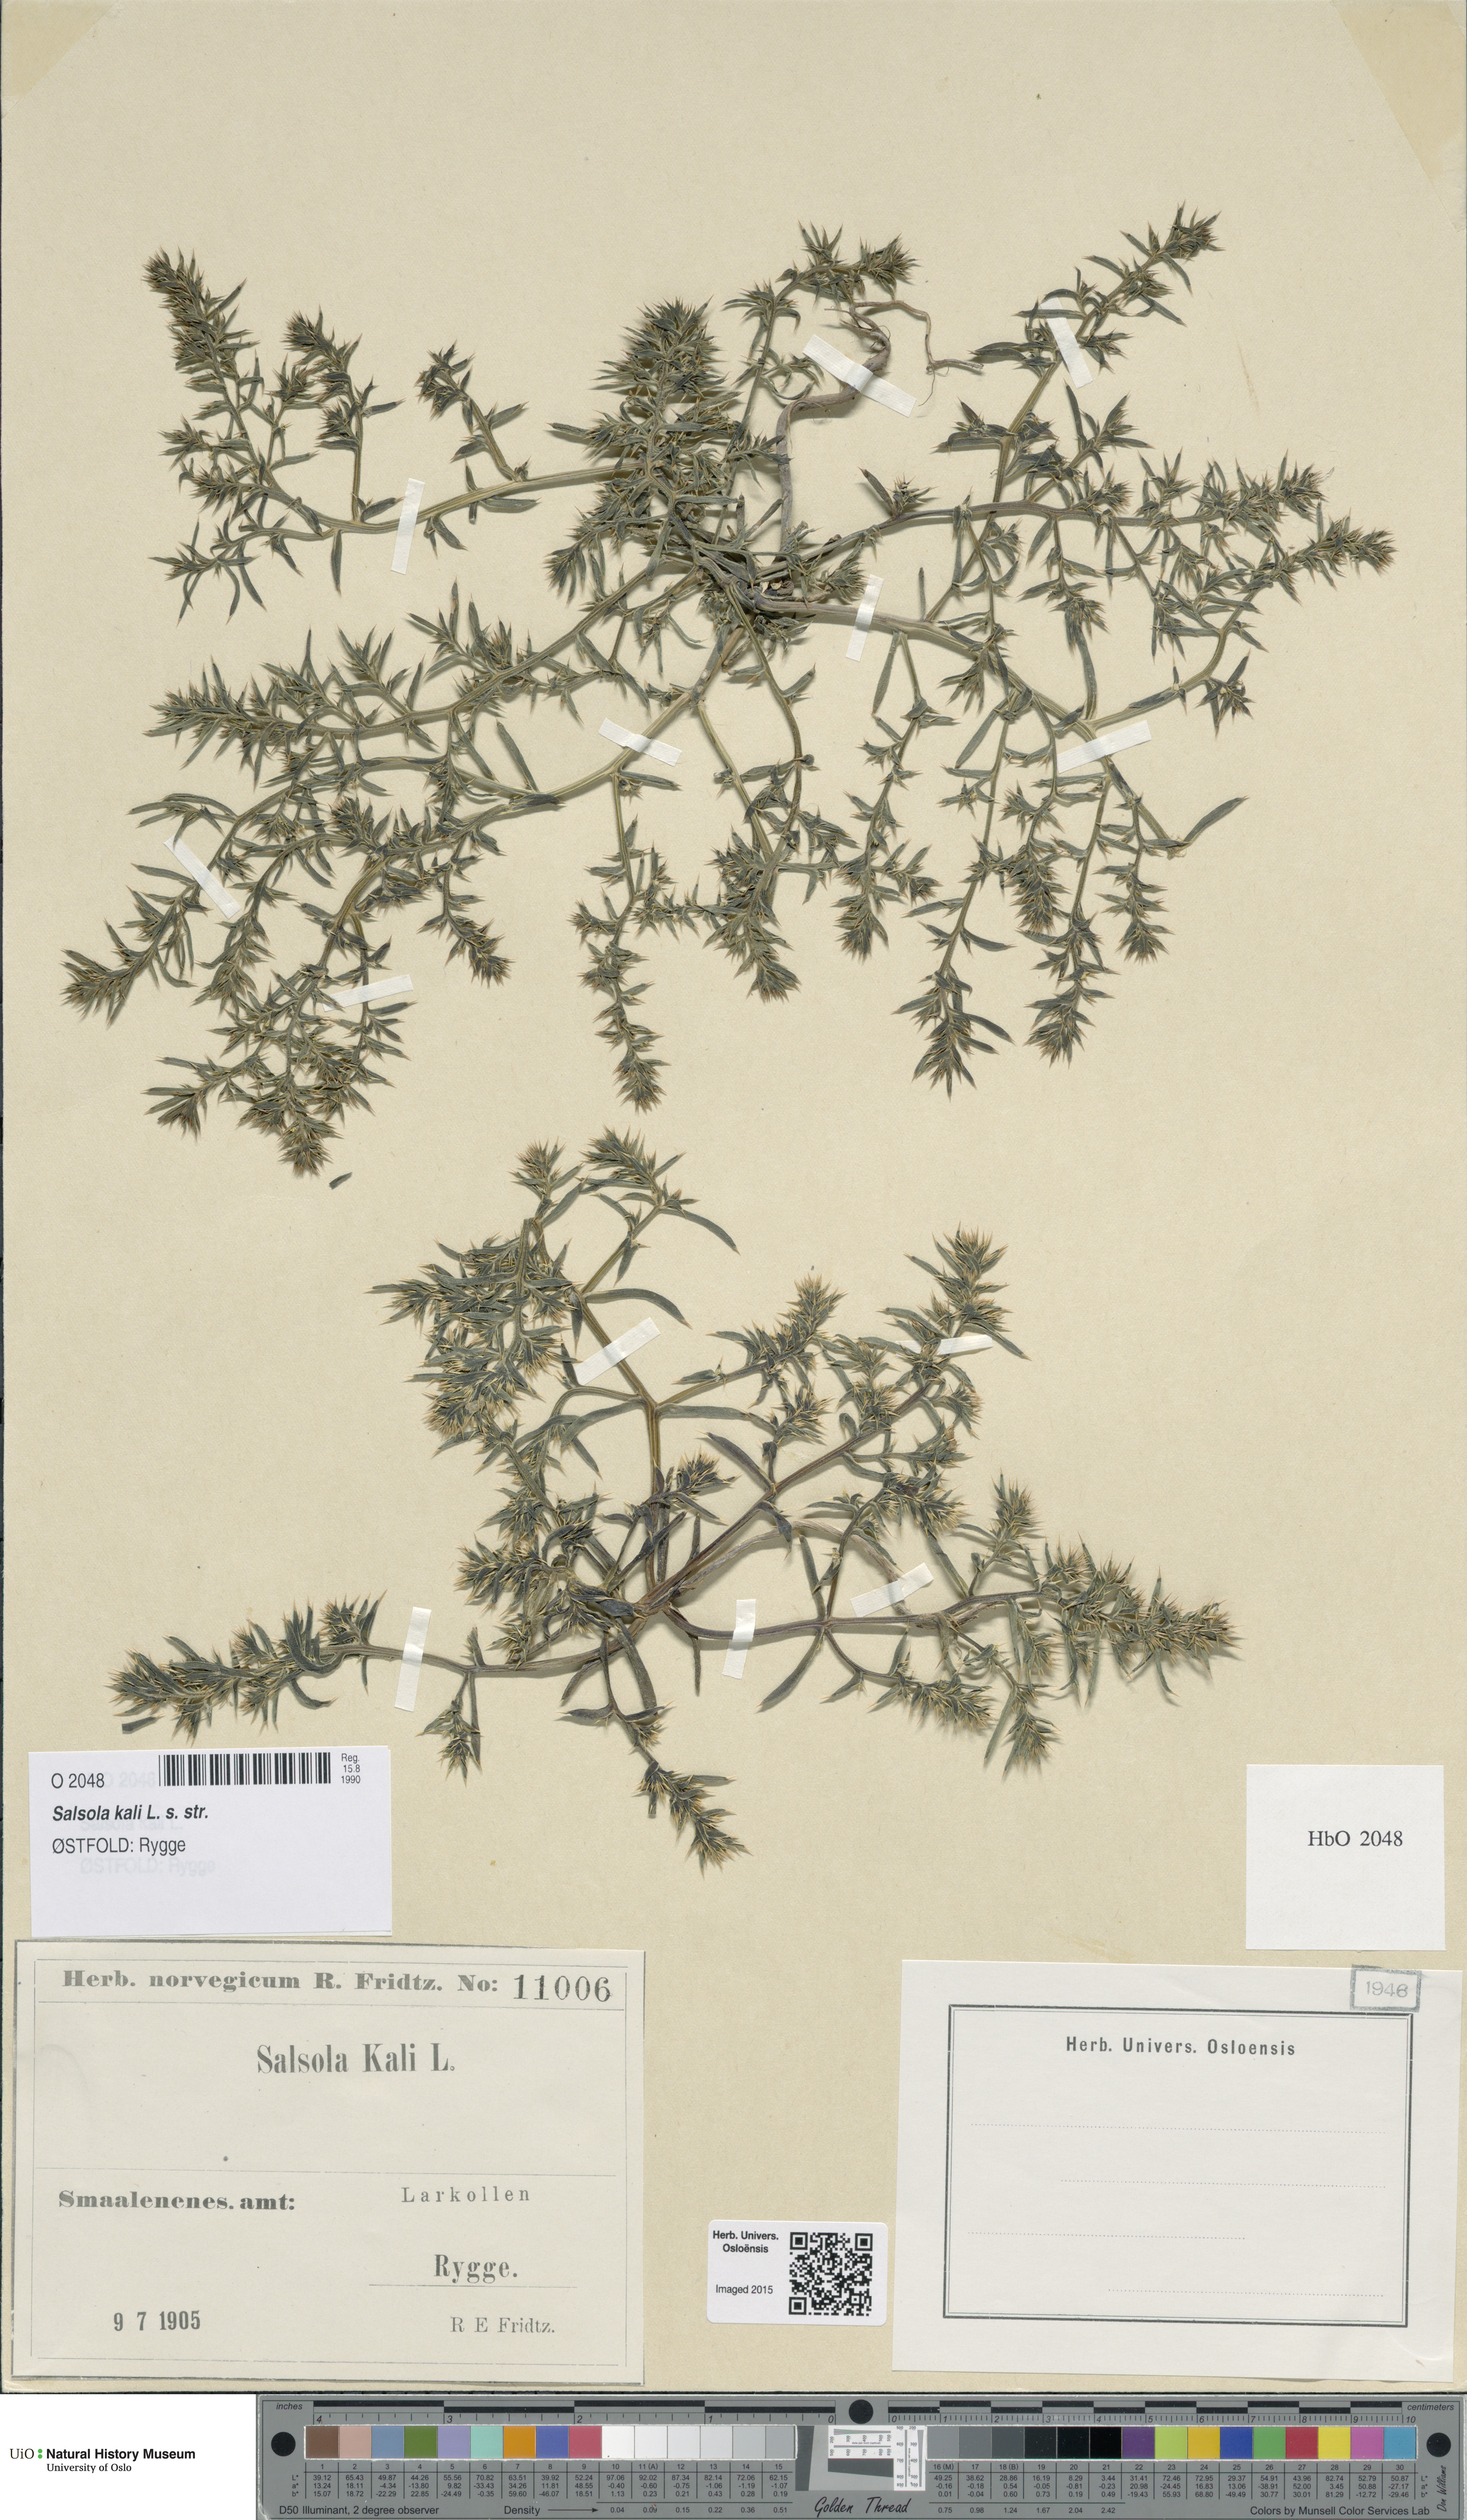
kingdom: Plantae
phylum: Tracheophyta
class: Magnoliopsida
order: Caryophyllales
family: Amaranthaceae
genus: Salsola
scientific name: Salsola kali
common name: Saltwort
